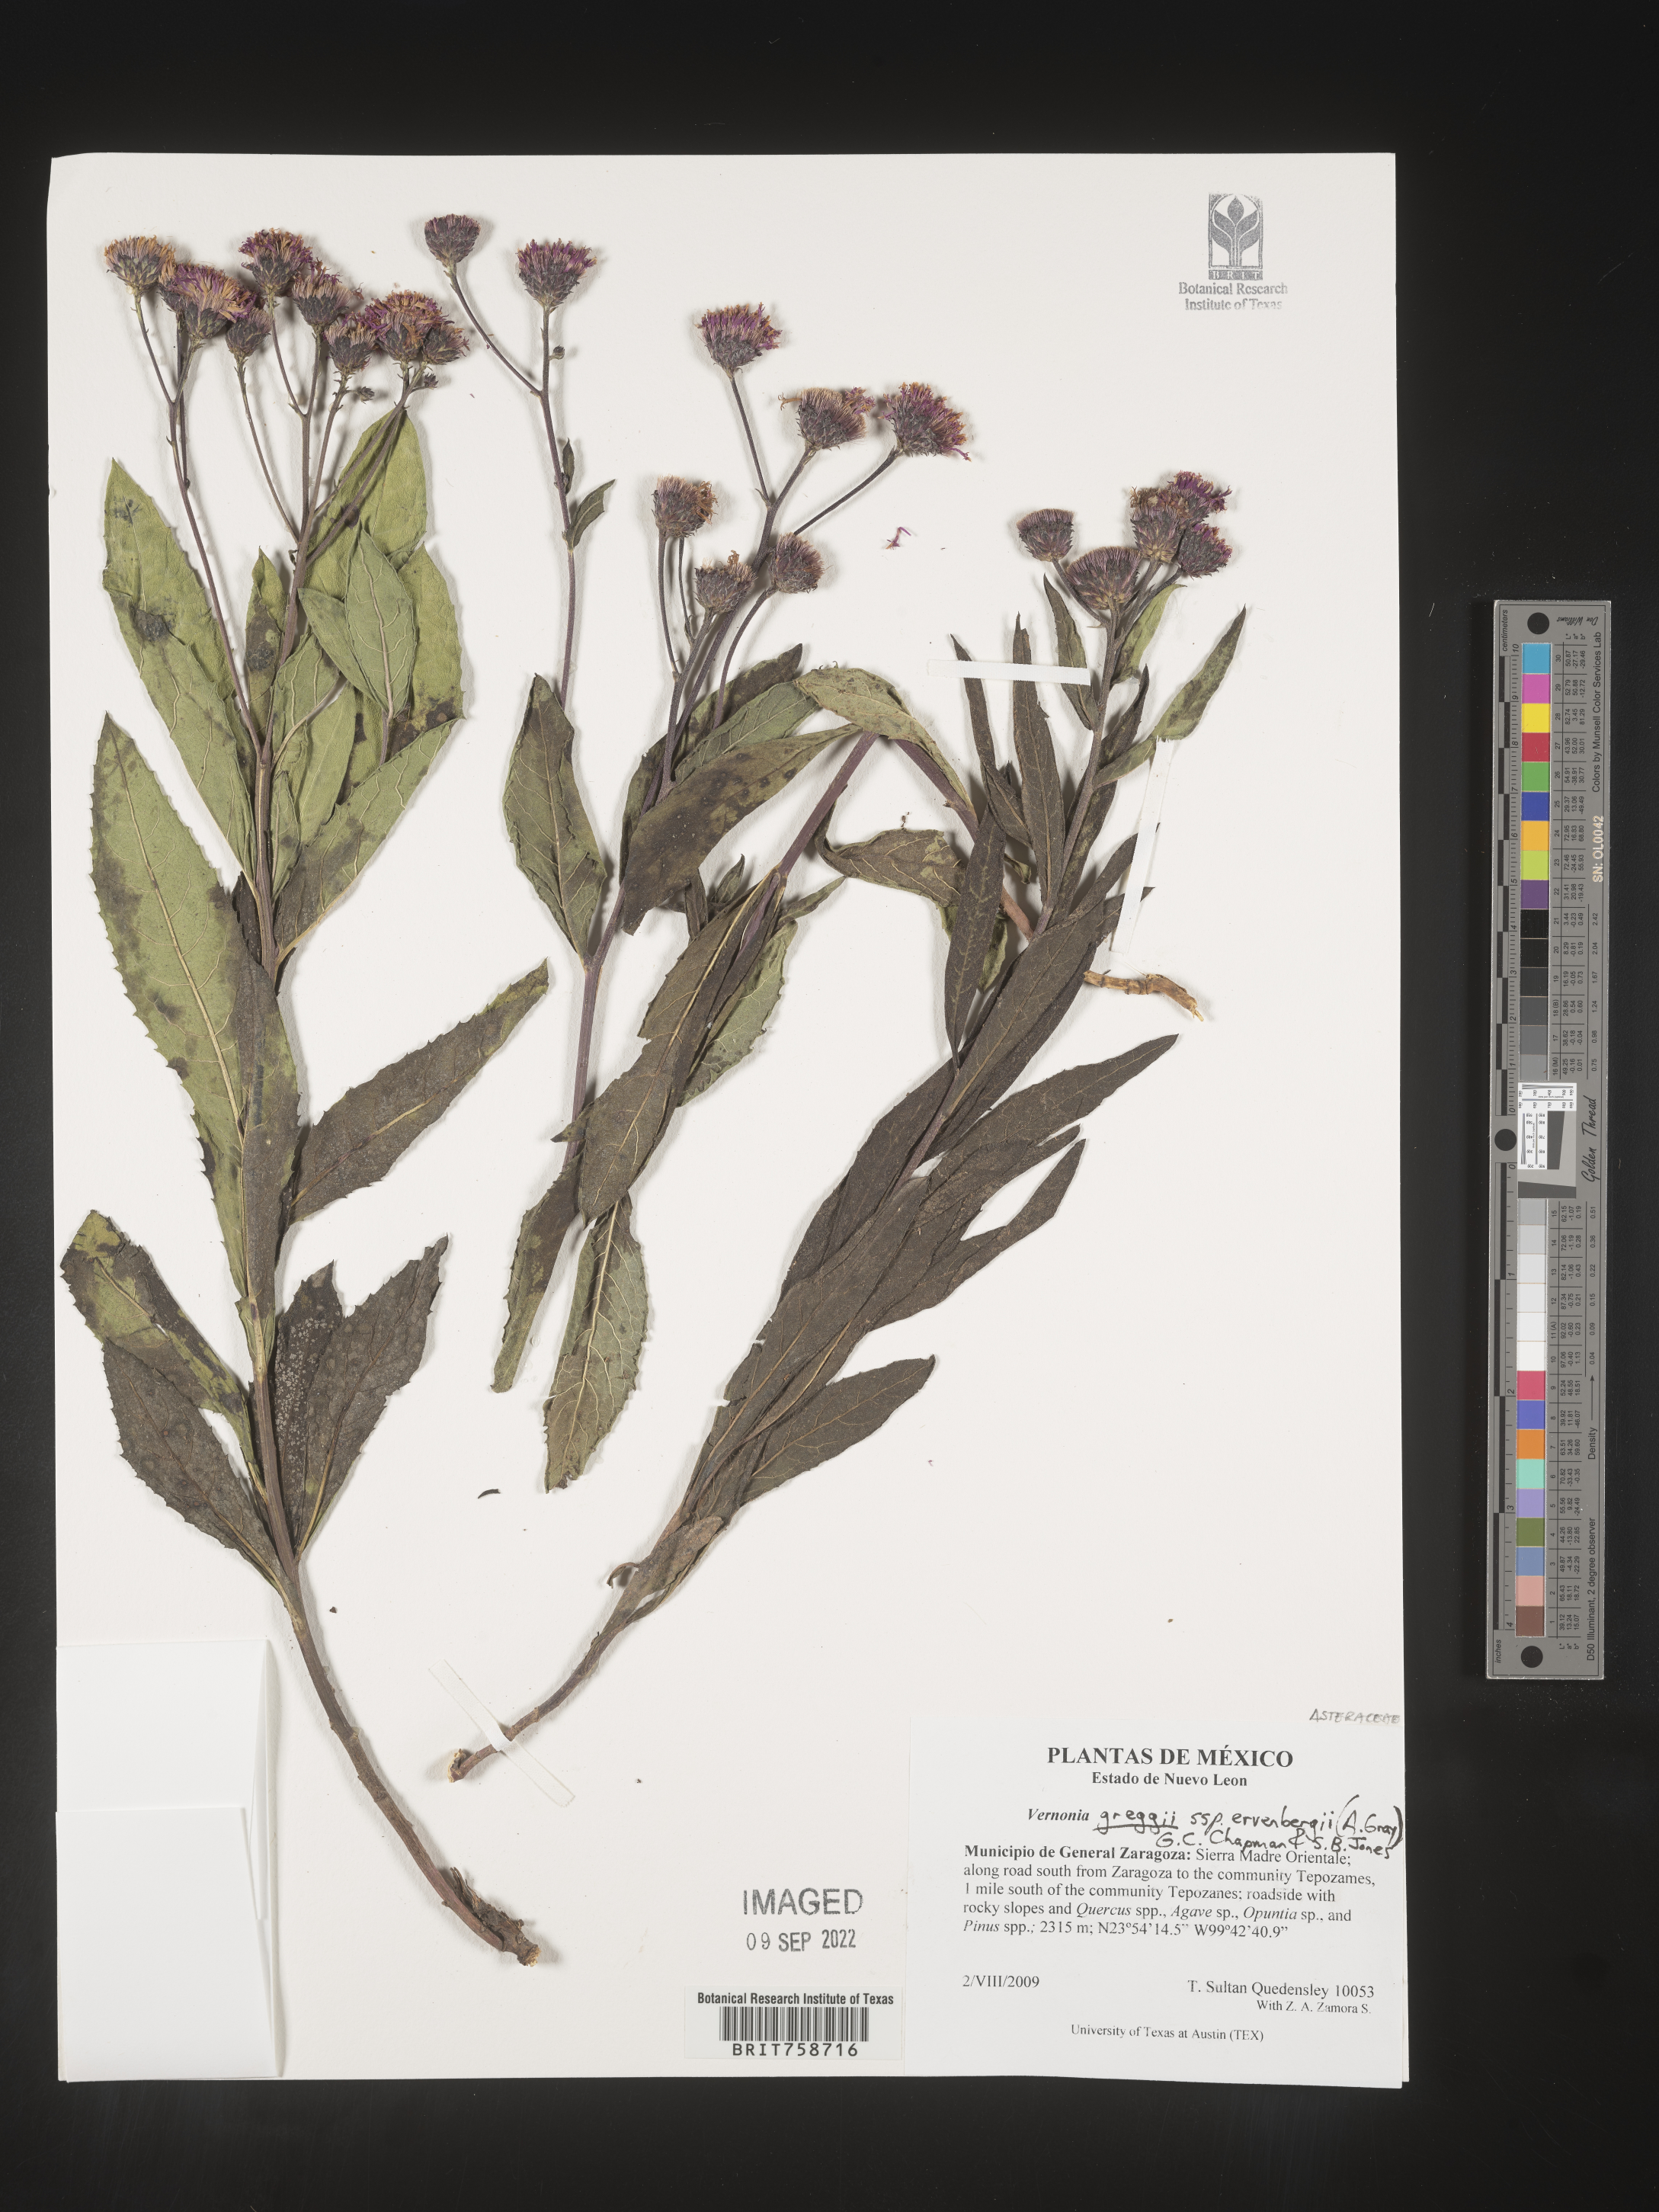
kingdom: Plantae
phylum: Tracheophyta
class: Magnoliopsida
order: Asterales
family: Asteraceae
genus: Vernonia
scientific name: Vernonia
